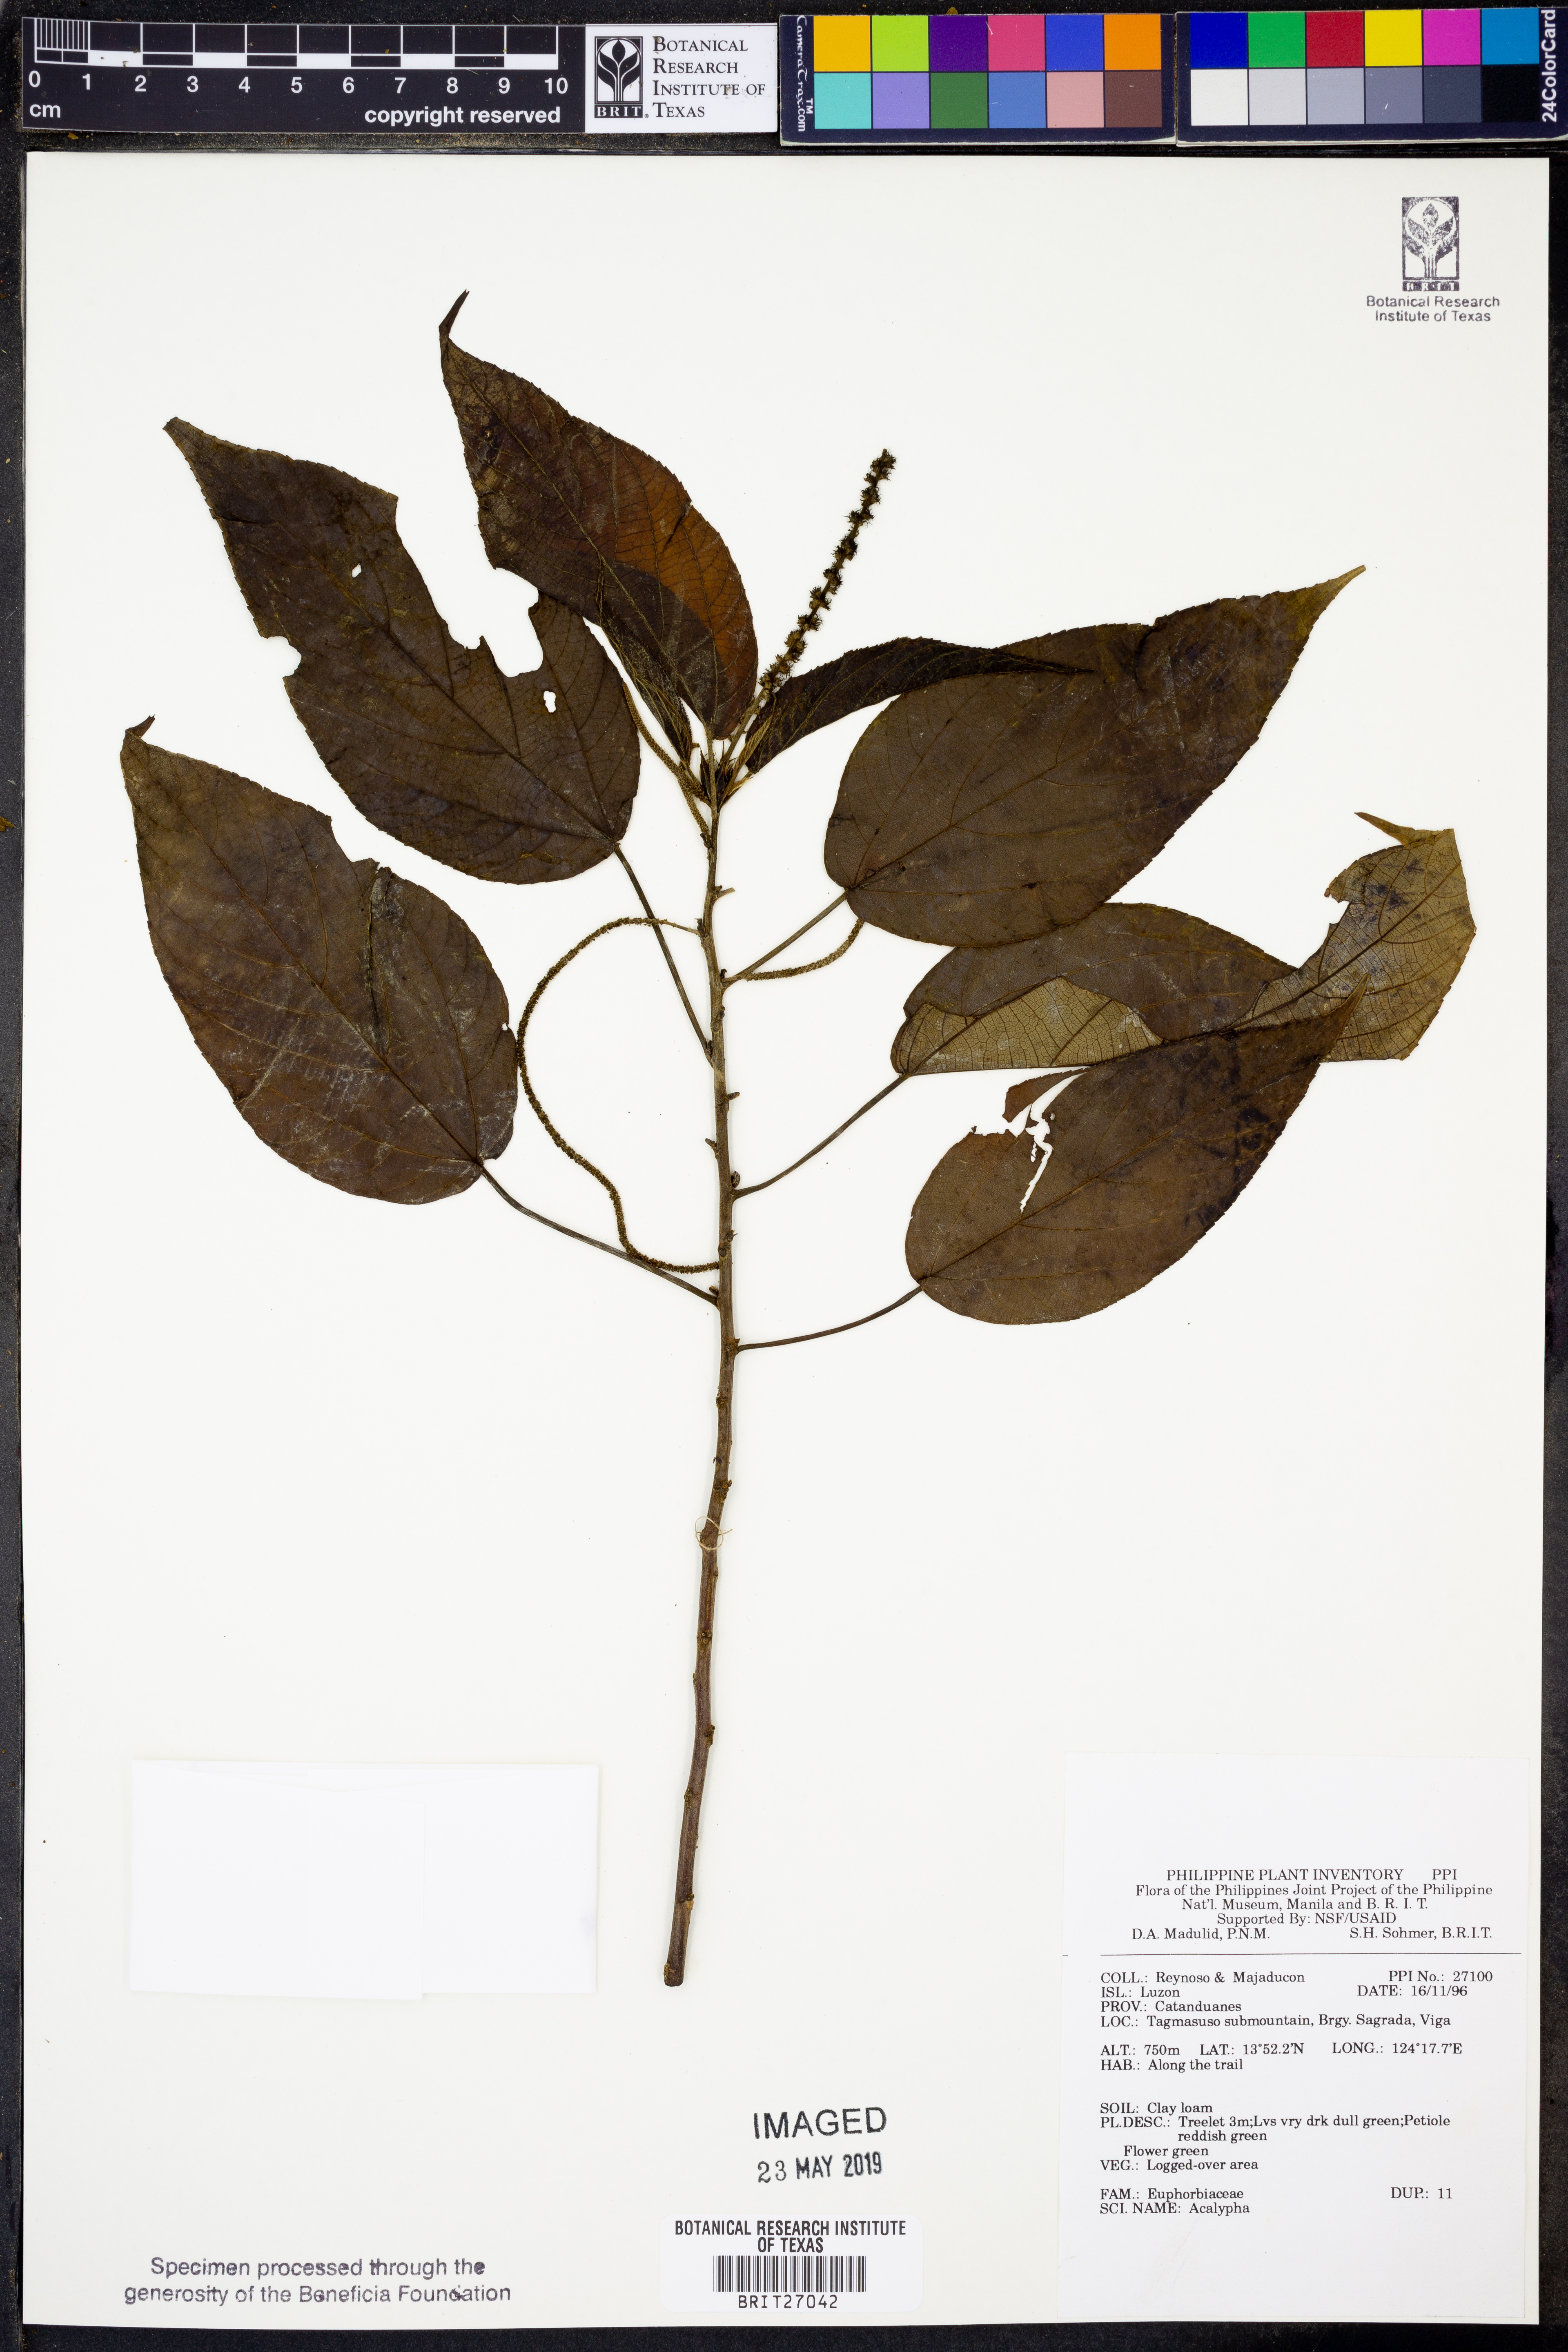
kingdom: Plantae
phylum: Tracheophyta
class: Magnoliopsida
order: Malpighiales
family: Euphorbiaceae
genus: Acalypha
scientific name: Acalypha
